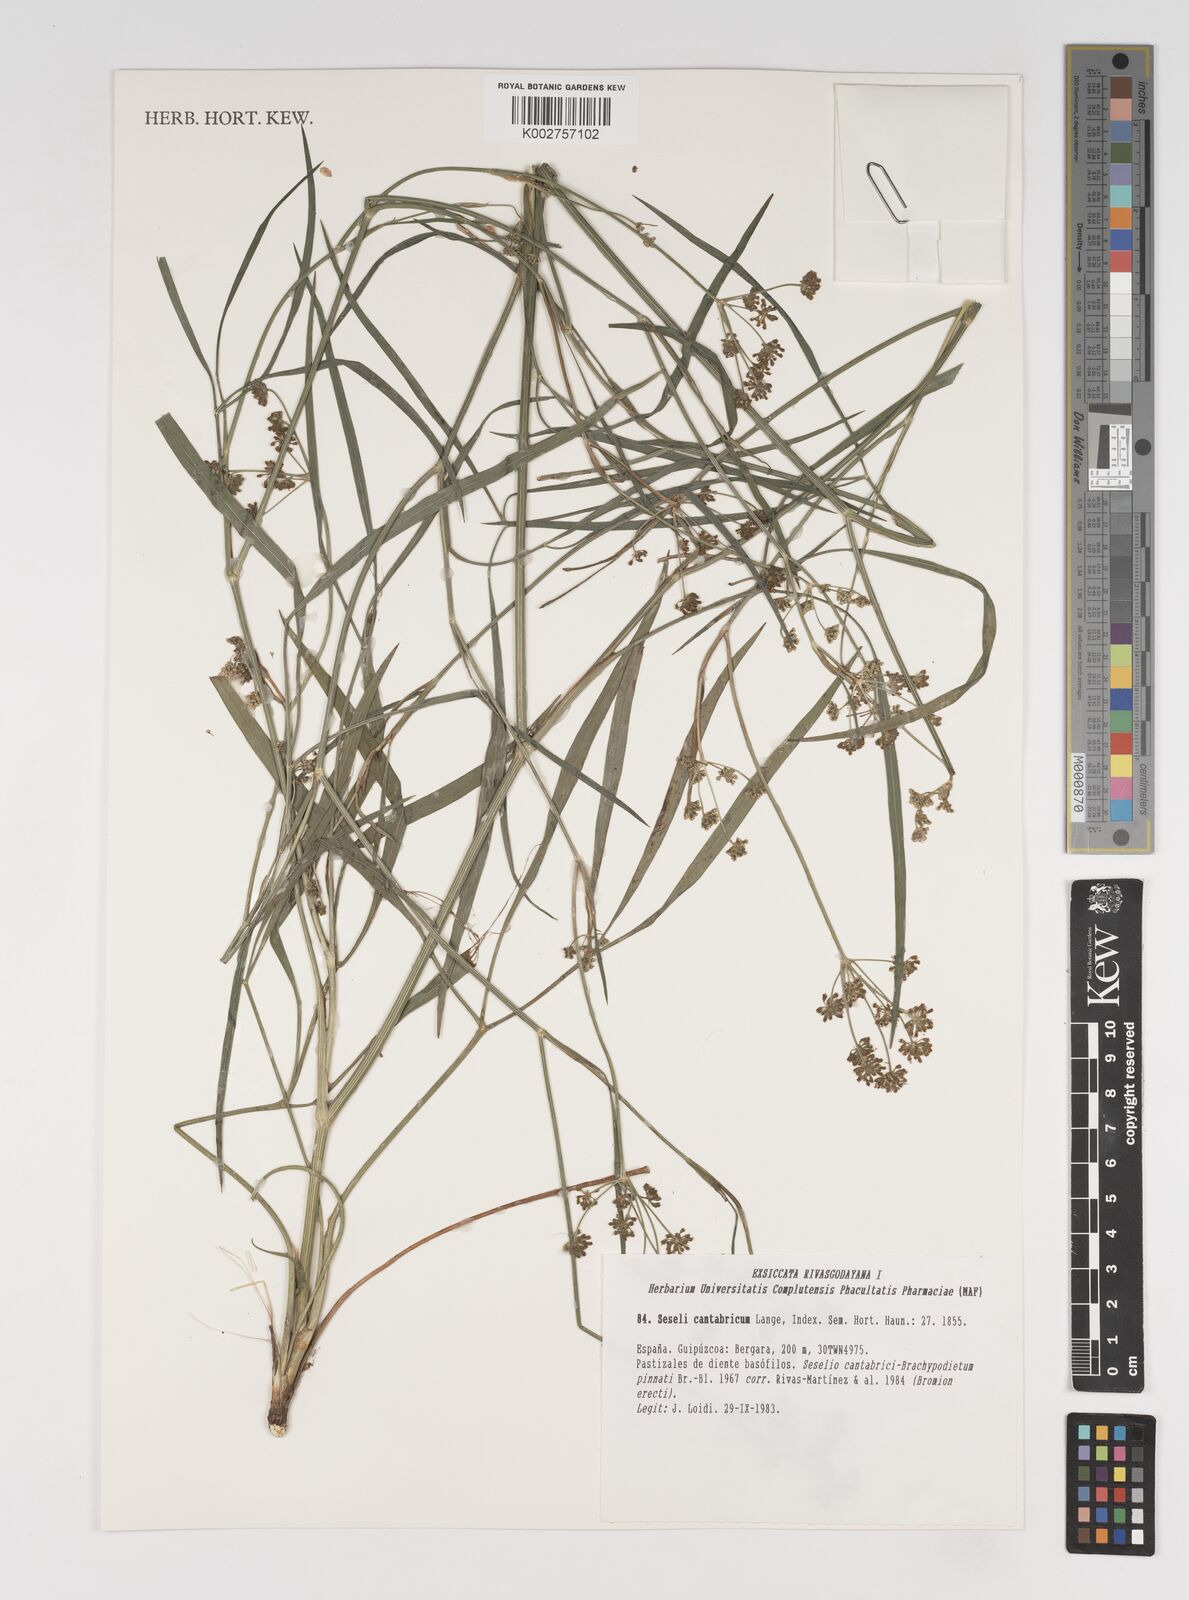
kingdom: Plantae
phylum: Tracheophyta
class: Magnoliopsida
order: Apiales
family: Apiaceae
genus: Seseli
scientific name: Seseli montanum
